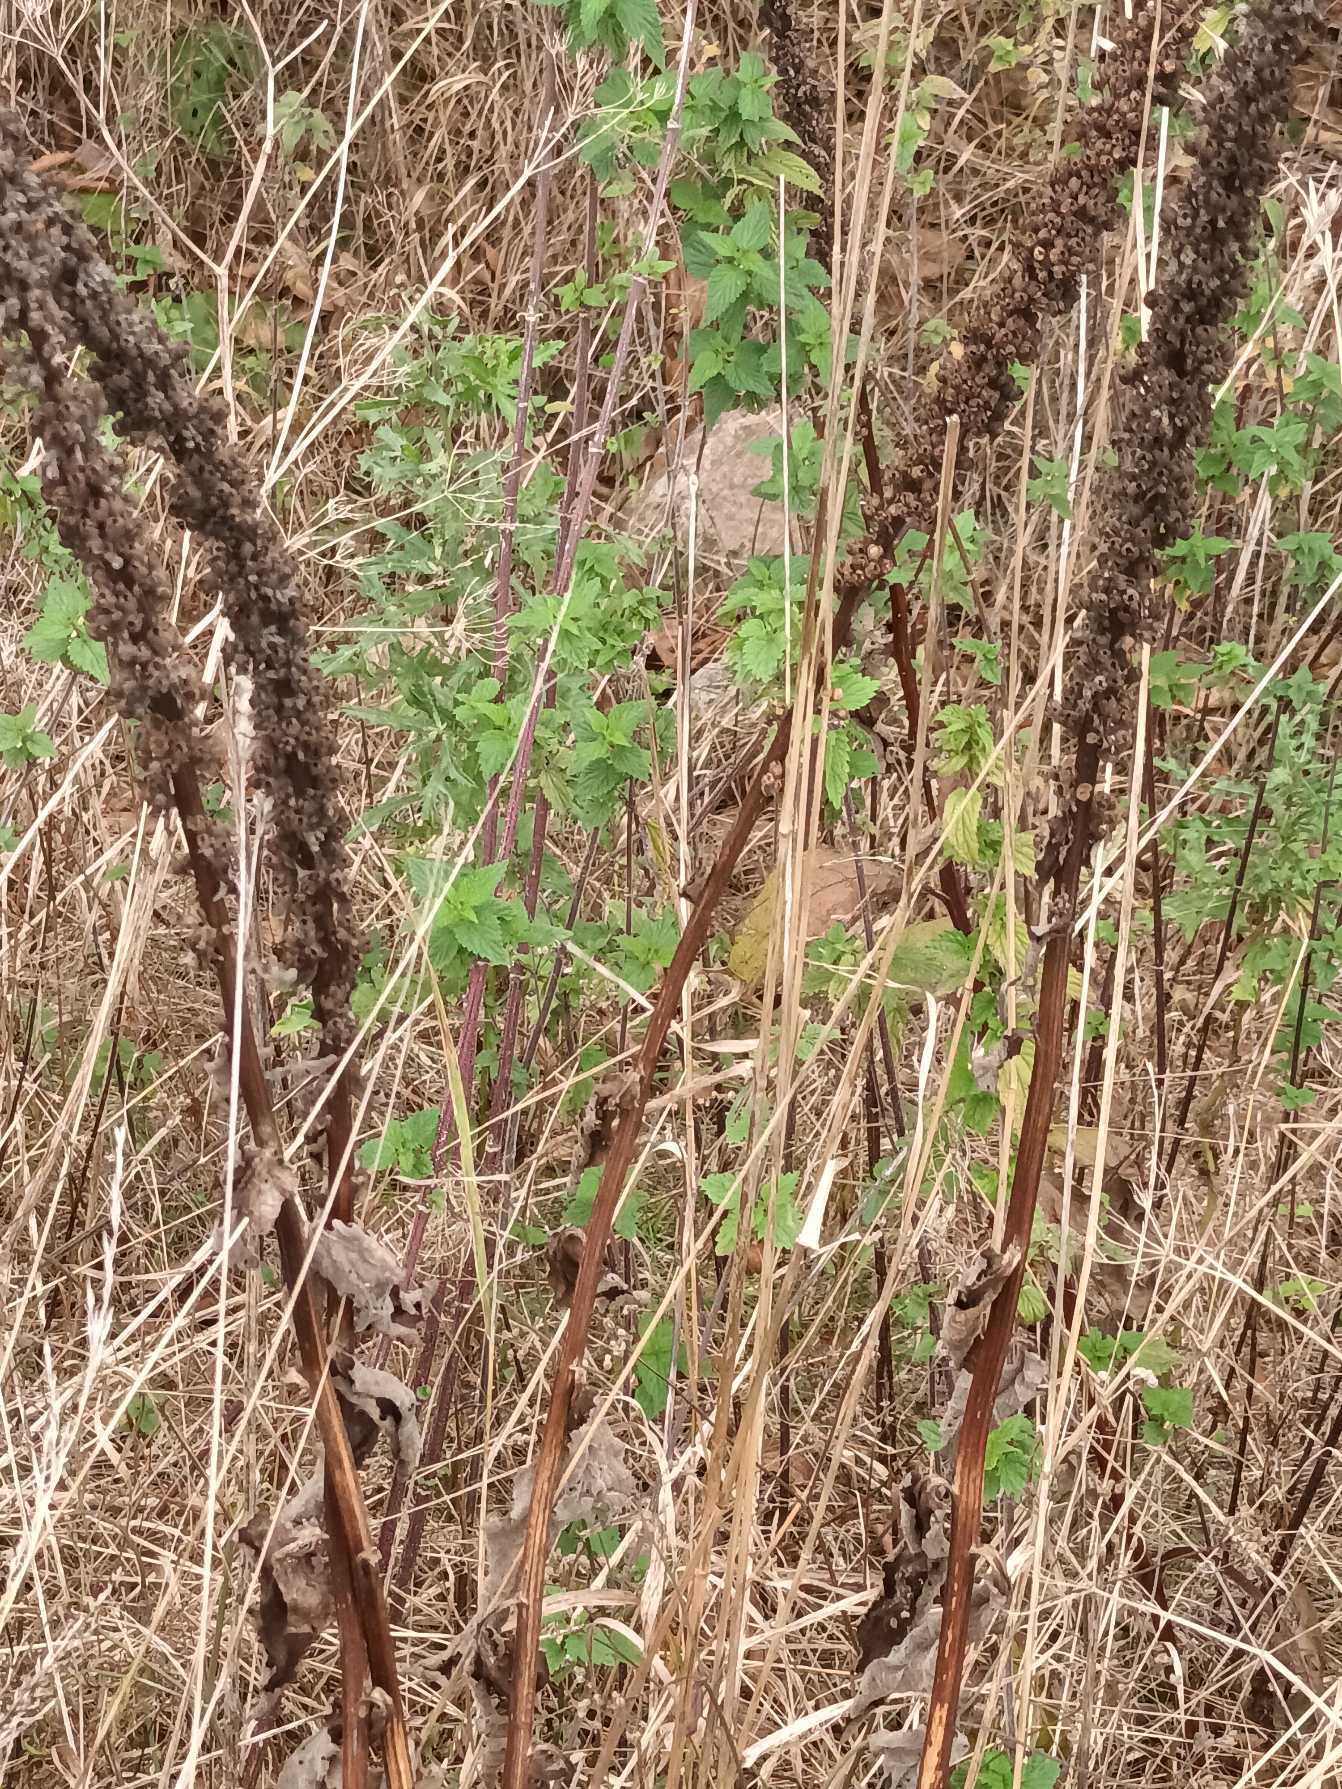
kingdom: Plantae
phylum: Tracheophyta
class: Magnoliopsida
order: Lamiales
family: Scrophulariaceae
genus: Verbascum
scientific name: Verbascum nigrum
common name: Mørk kongelys
